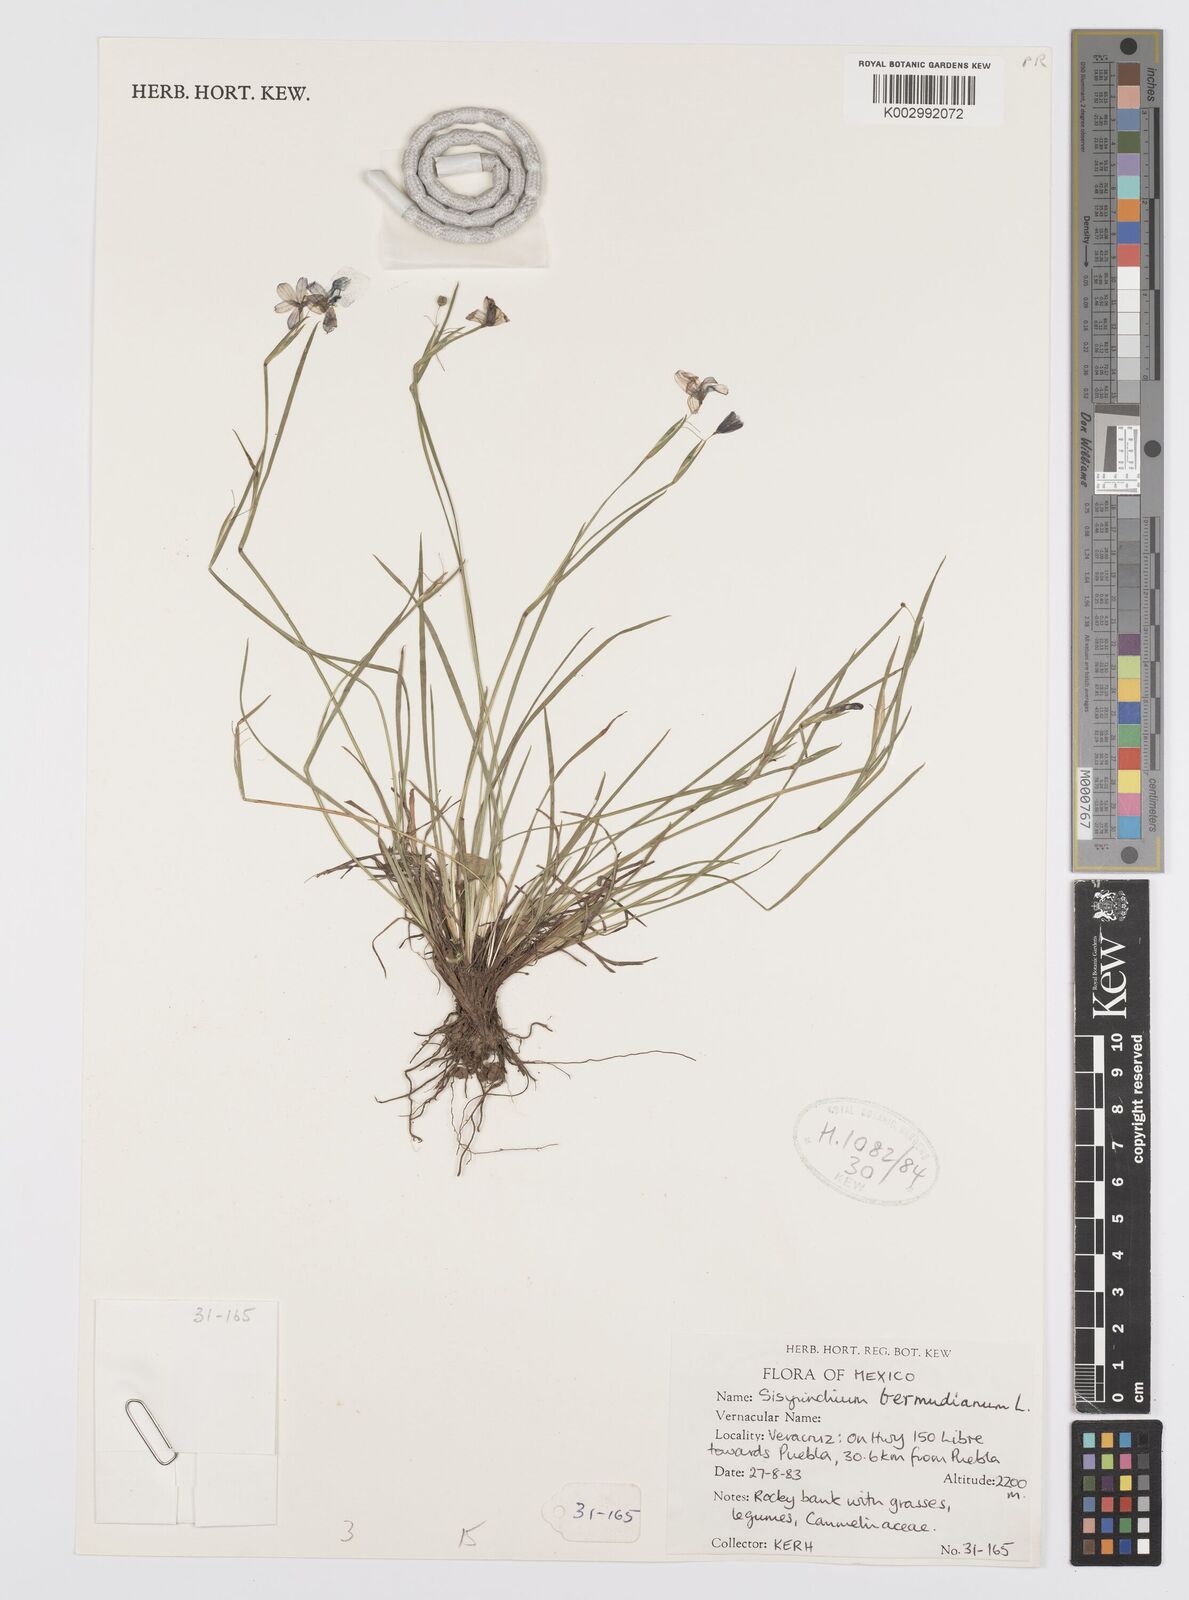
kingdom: Plantae
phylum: Tracheophyta
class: Liliopsida
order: Asparagales
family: Iridaceae
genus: Sisyrinchium
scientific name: Sisyrinchium bermudiana
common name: Blue-eyed-grass
